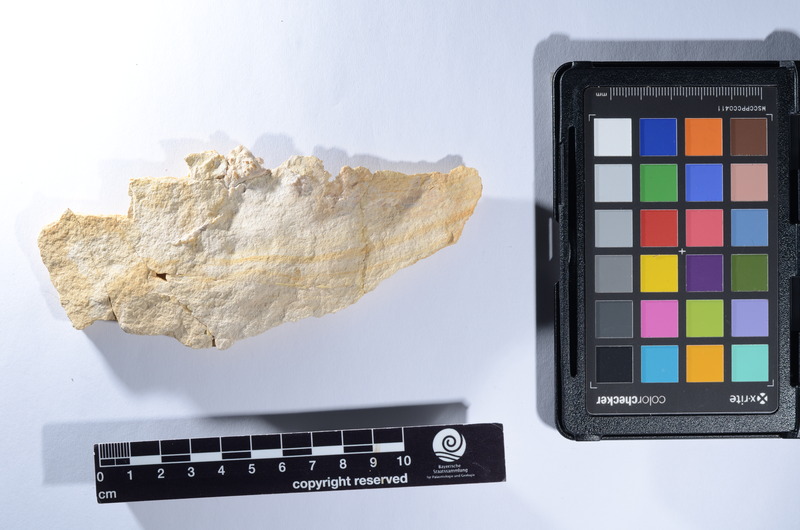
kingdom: Animalia
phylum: Chordata
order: Lepisosteiformes
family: Lepidotidae
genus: Lepidotes
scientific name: Lepidotes
